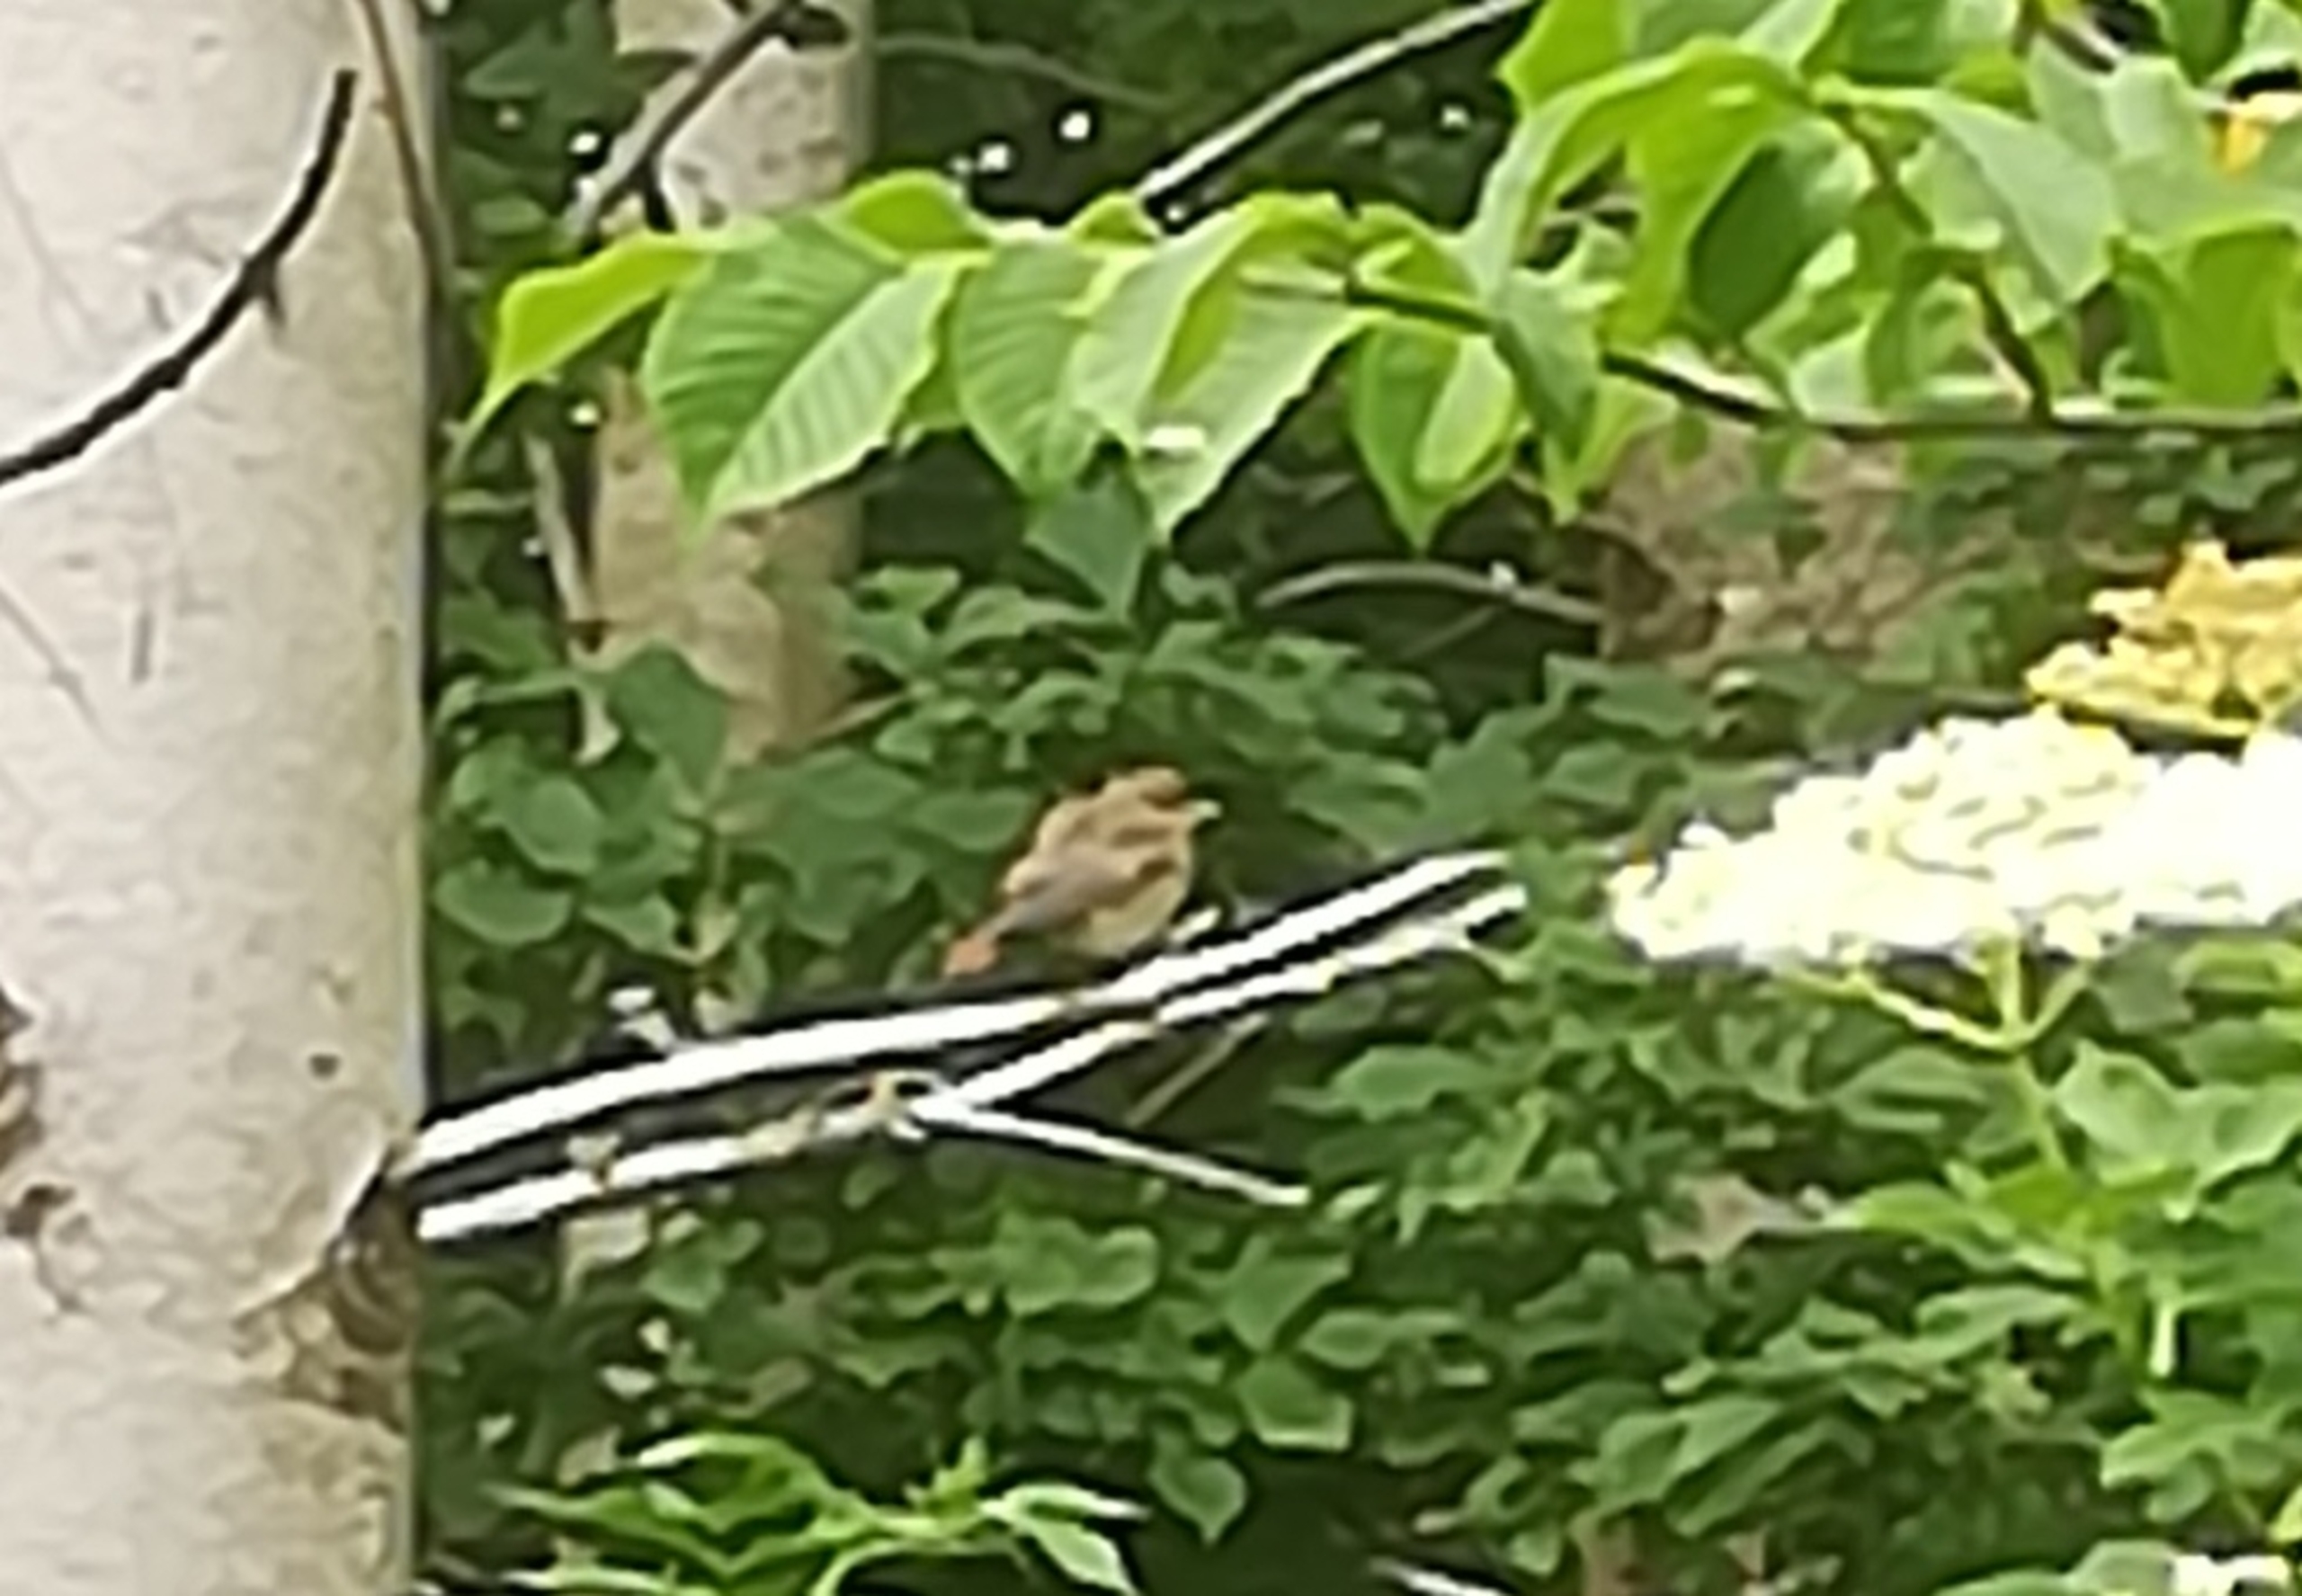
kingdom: Animalia
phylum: Chordata
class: Aves
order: Passeriformes
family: Muscicapidae
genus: Phoenicurus
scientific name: Phoenicurus phoenicurus
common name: Rødstjert
